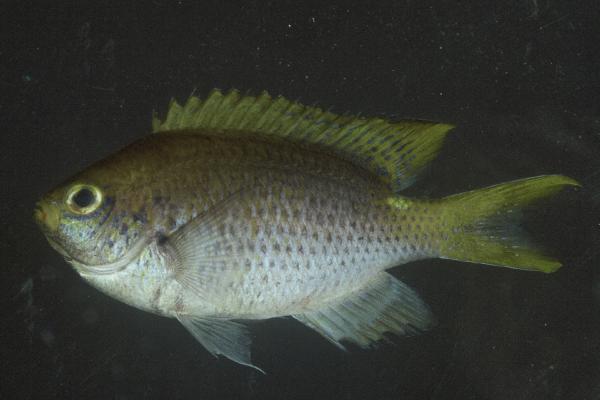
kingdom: Animalia
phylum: Chordata
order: Perciformes
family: Pomacentridae
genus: Chromis
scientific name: Chromis dasygenys
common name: Blue-spotted chromis
